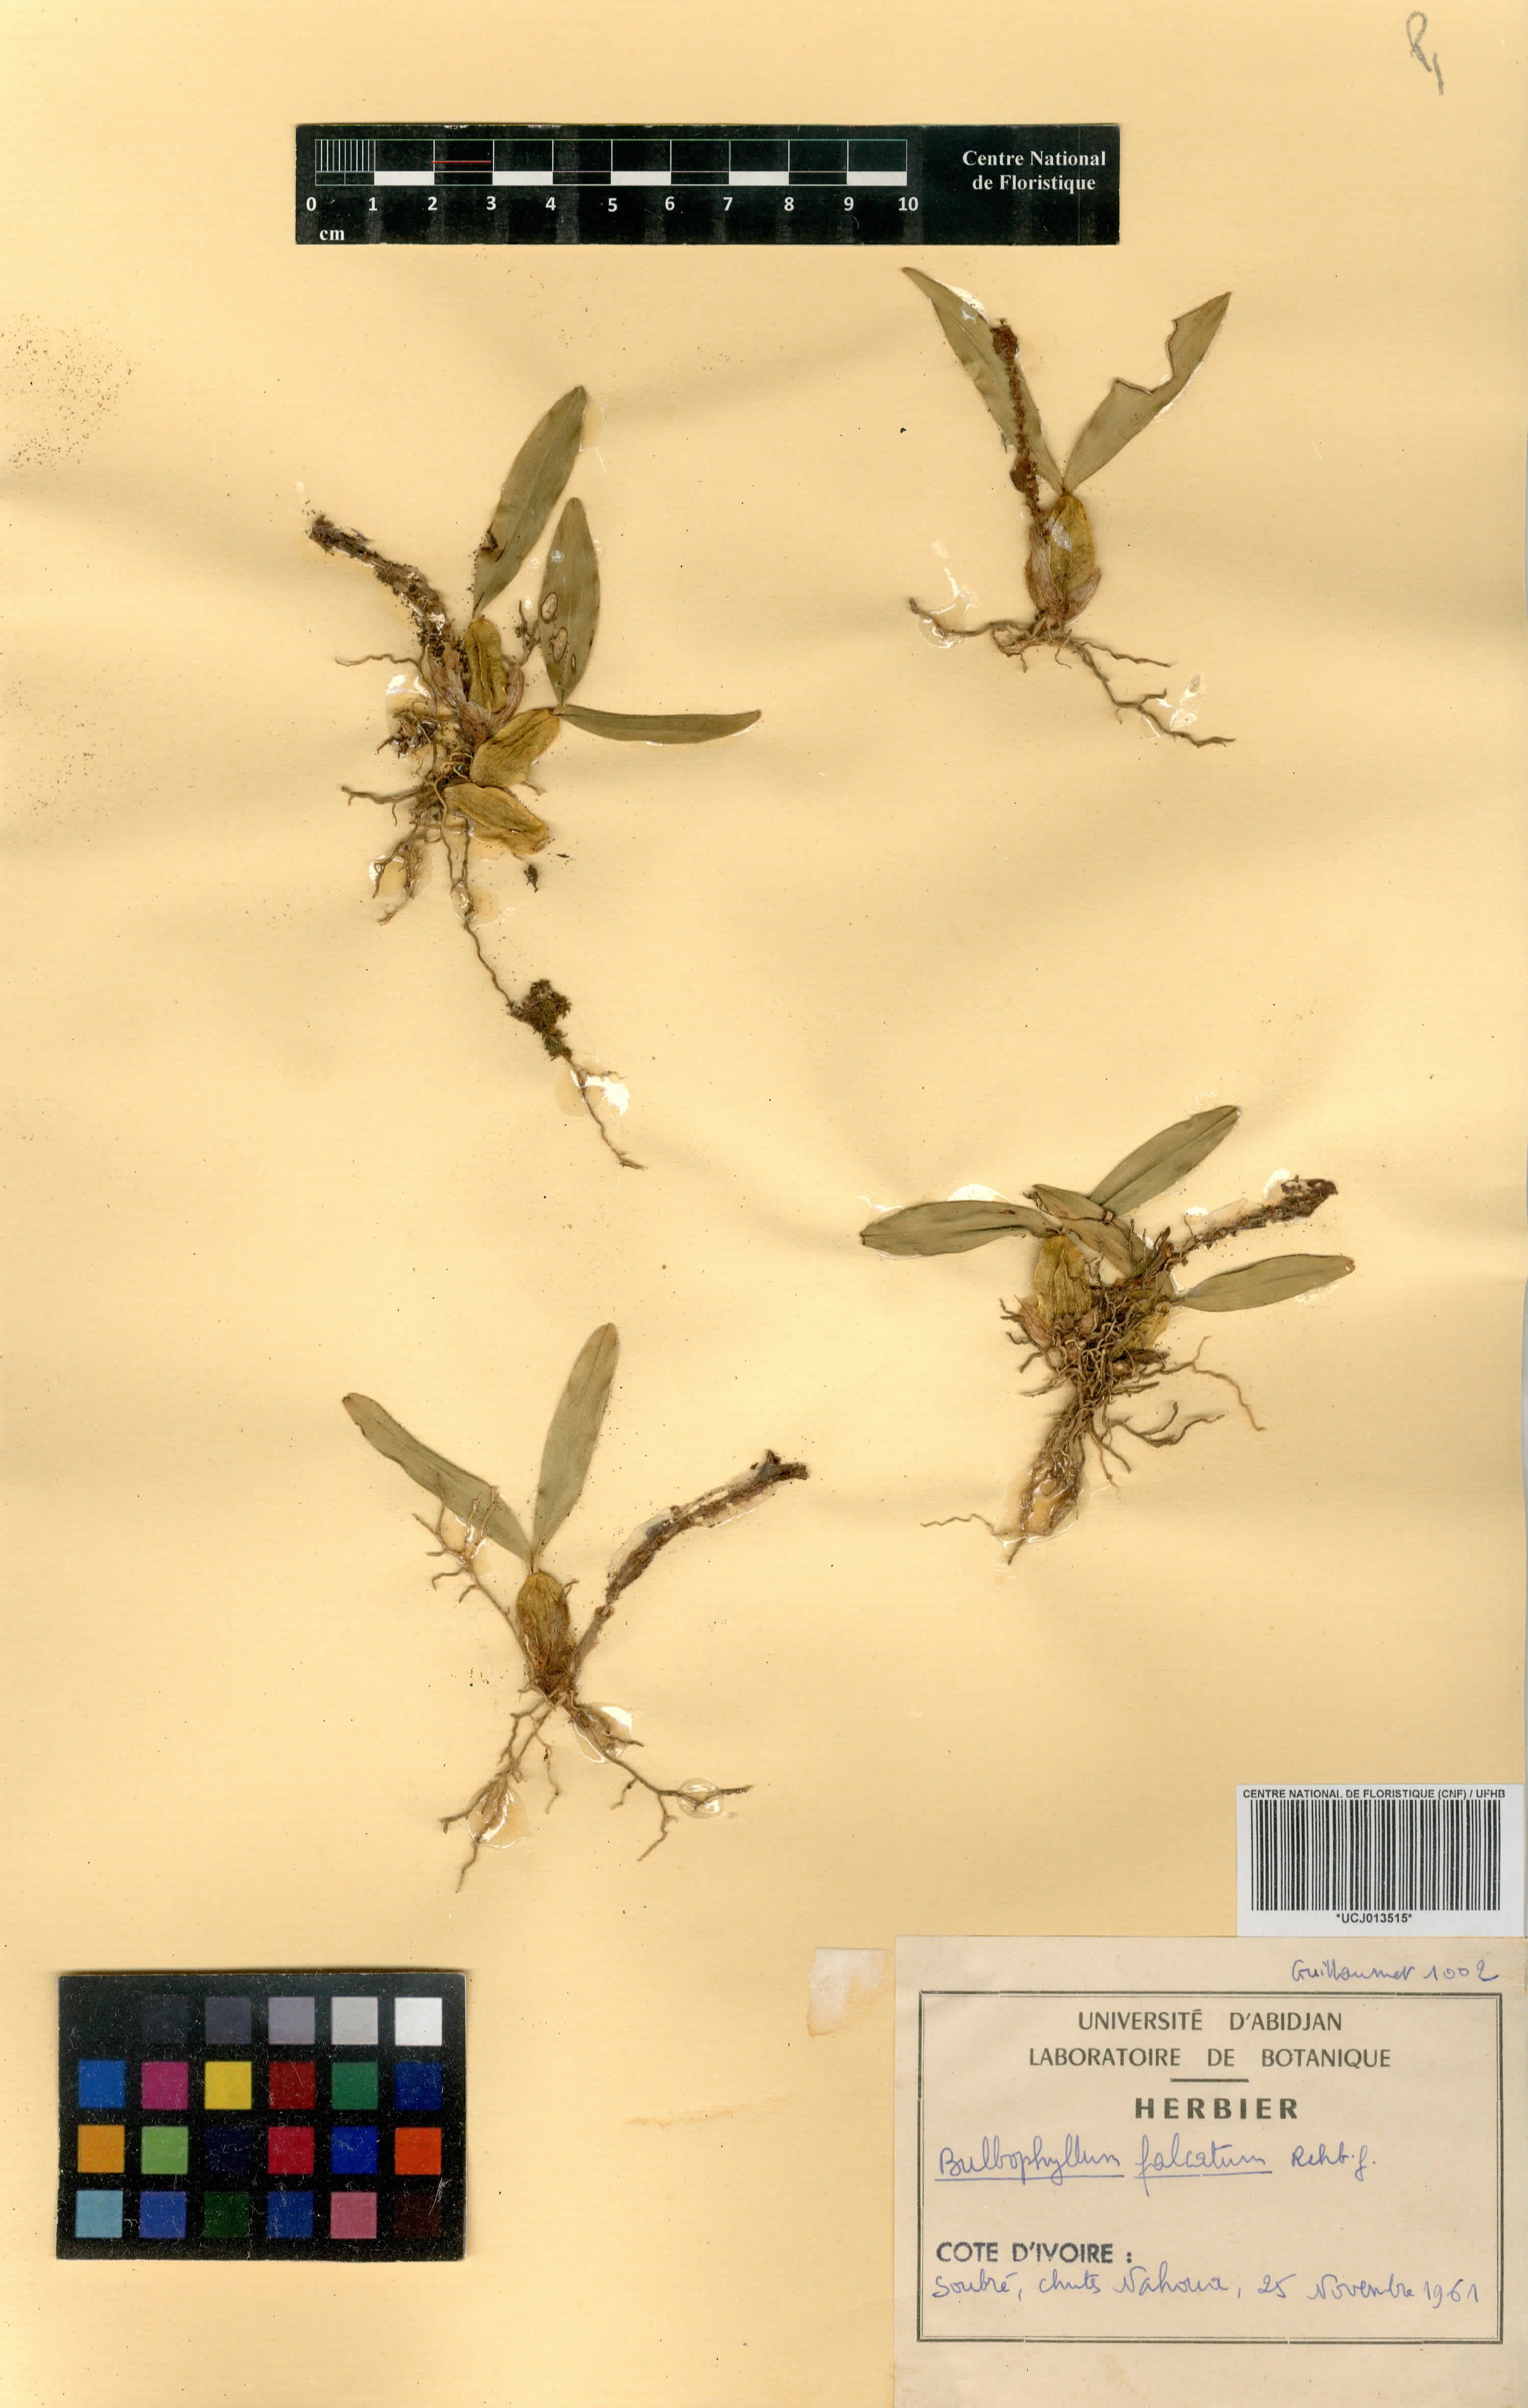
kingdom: Plantae
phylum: Tracheophyta
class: Liliopsida
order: Asparagales
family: Orchidaceae
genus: Bulbophyllum
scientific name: Bulbophyllum falcatum
